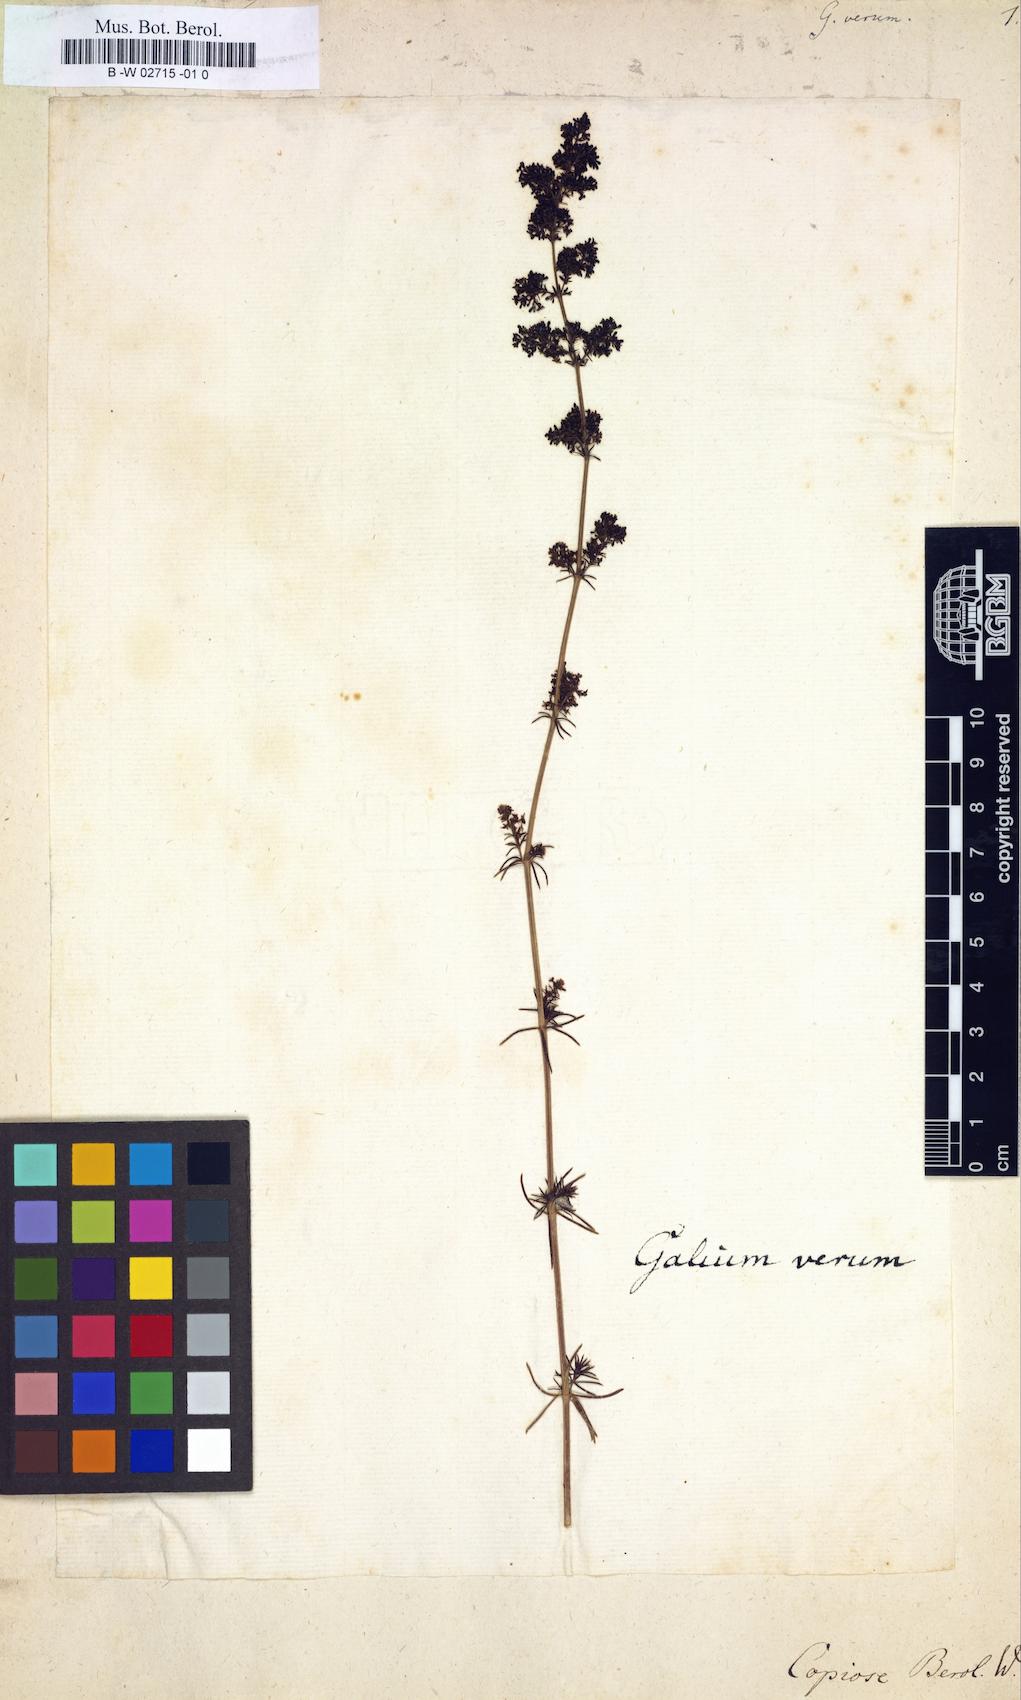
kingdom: Plantae
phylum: Tracheophyta
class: Magnoliopsida
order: Gentianales
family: Rubiaceae
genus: Galium
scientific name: Galium verum
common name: Lady's bedstraw
